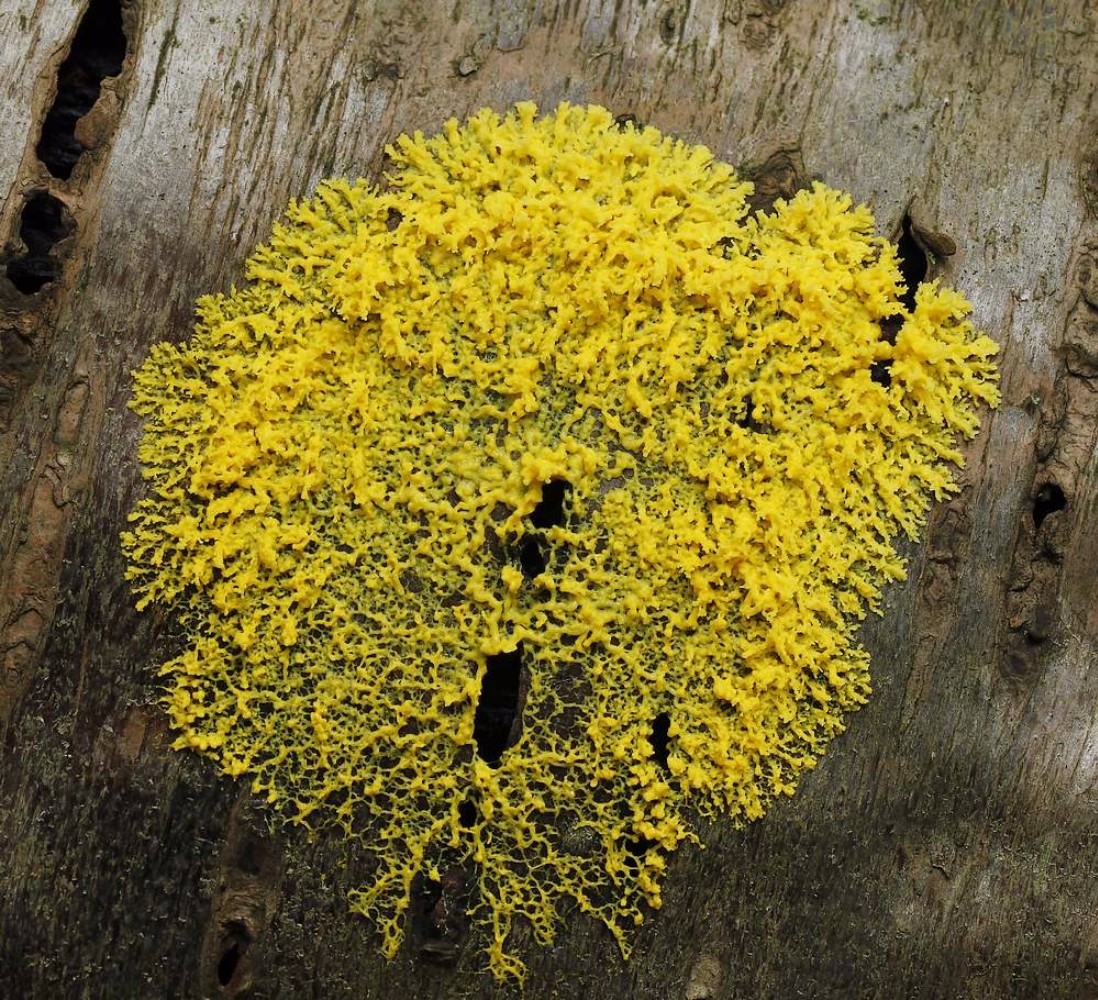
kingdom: Protozoa
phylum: Mycetozoa
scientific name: Mycetozoa
